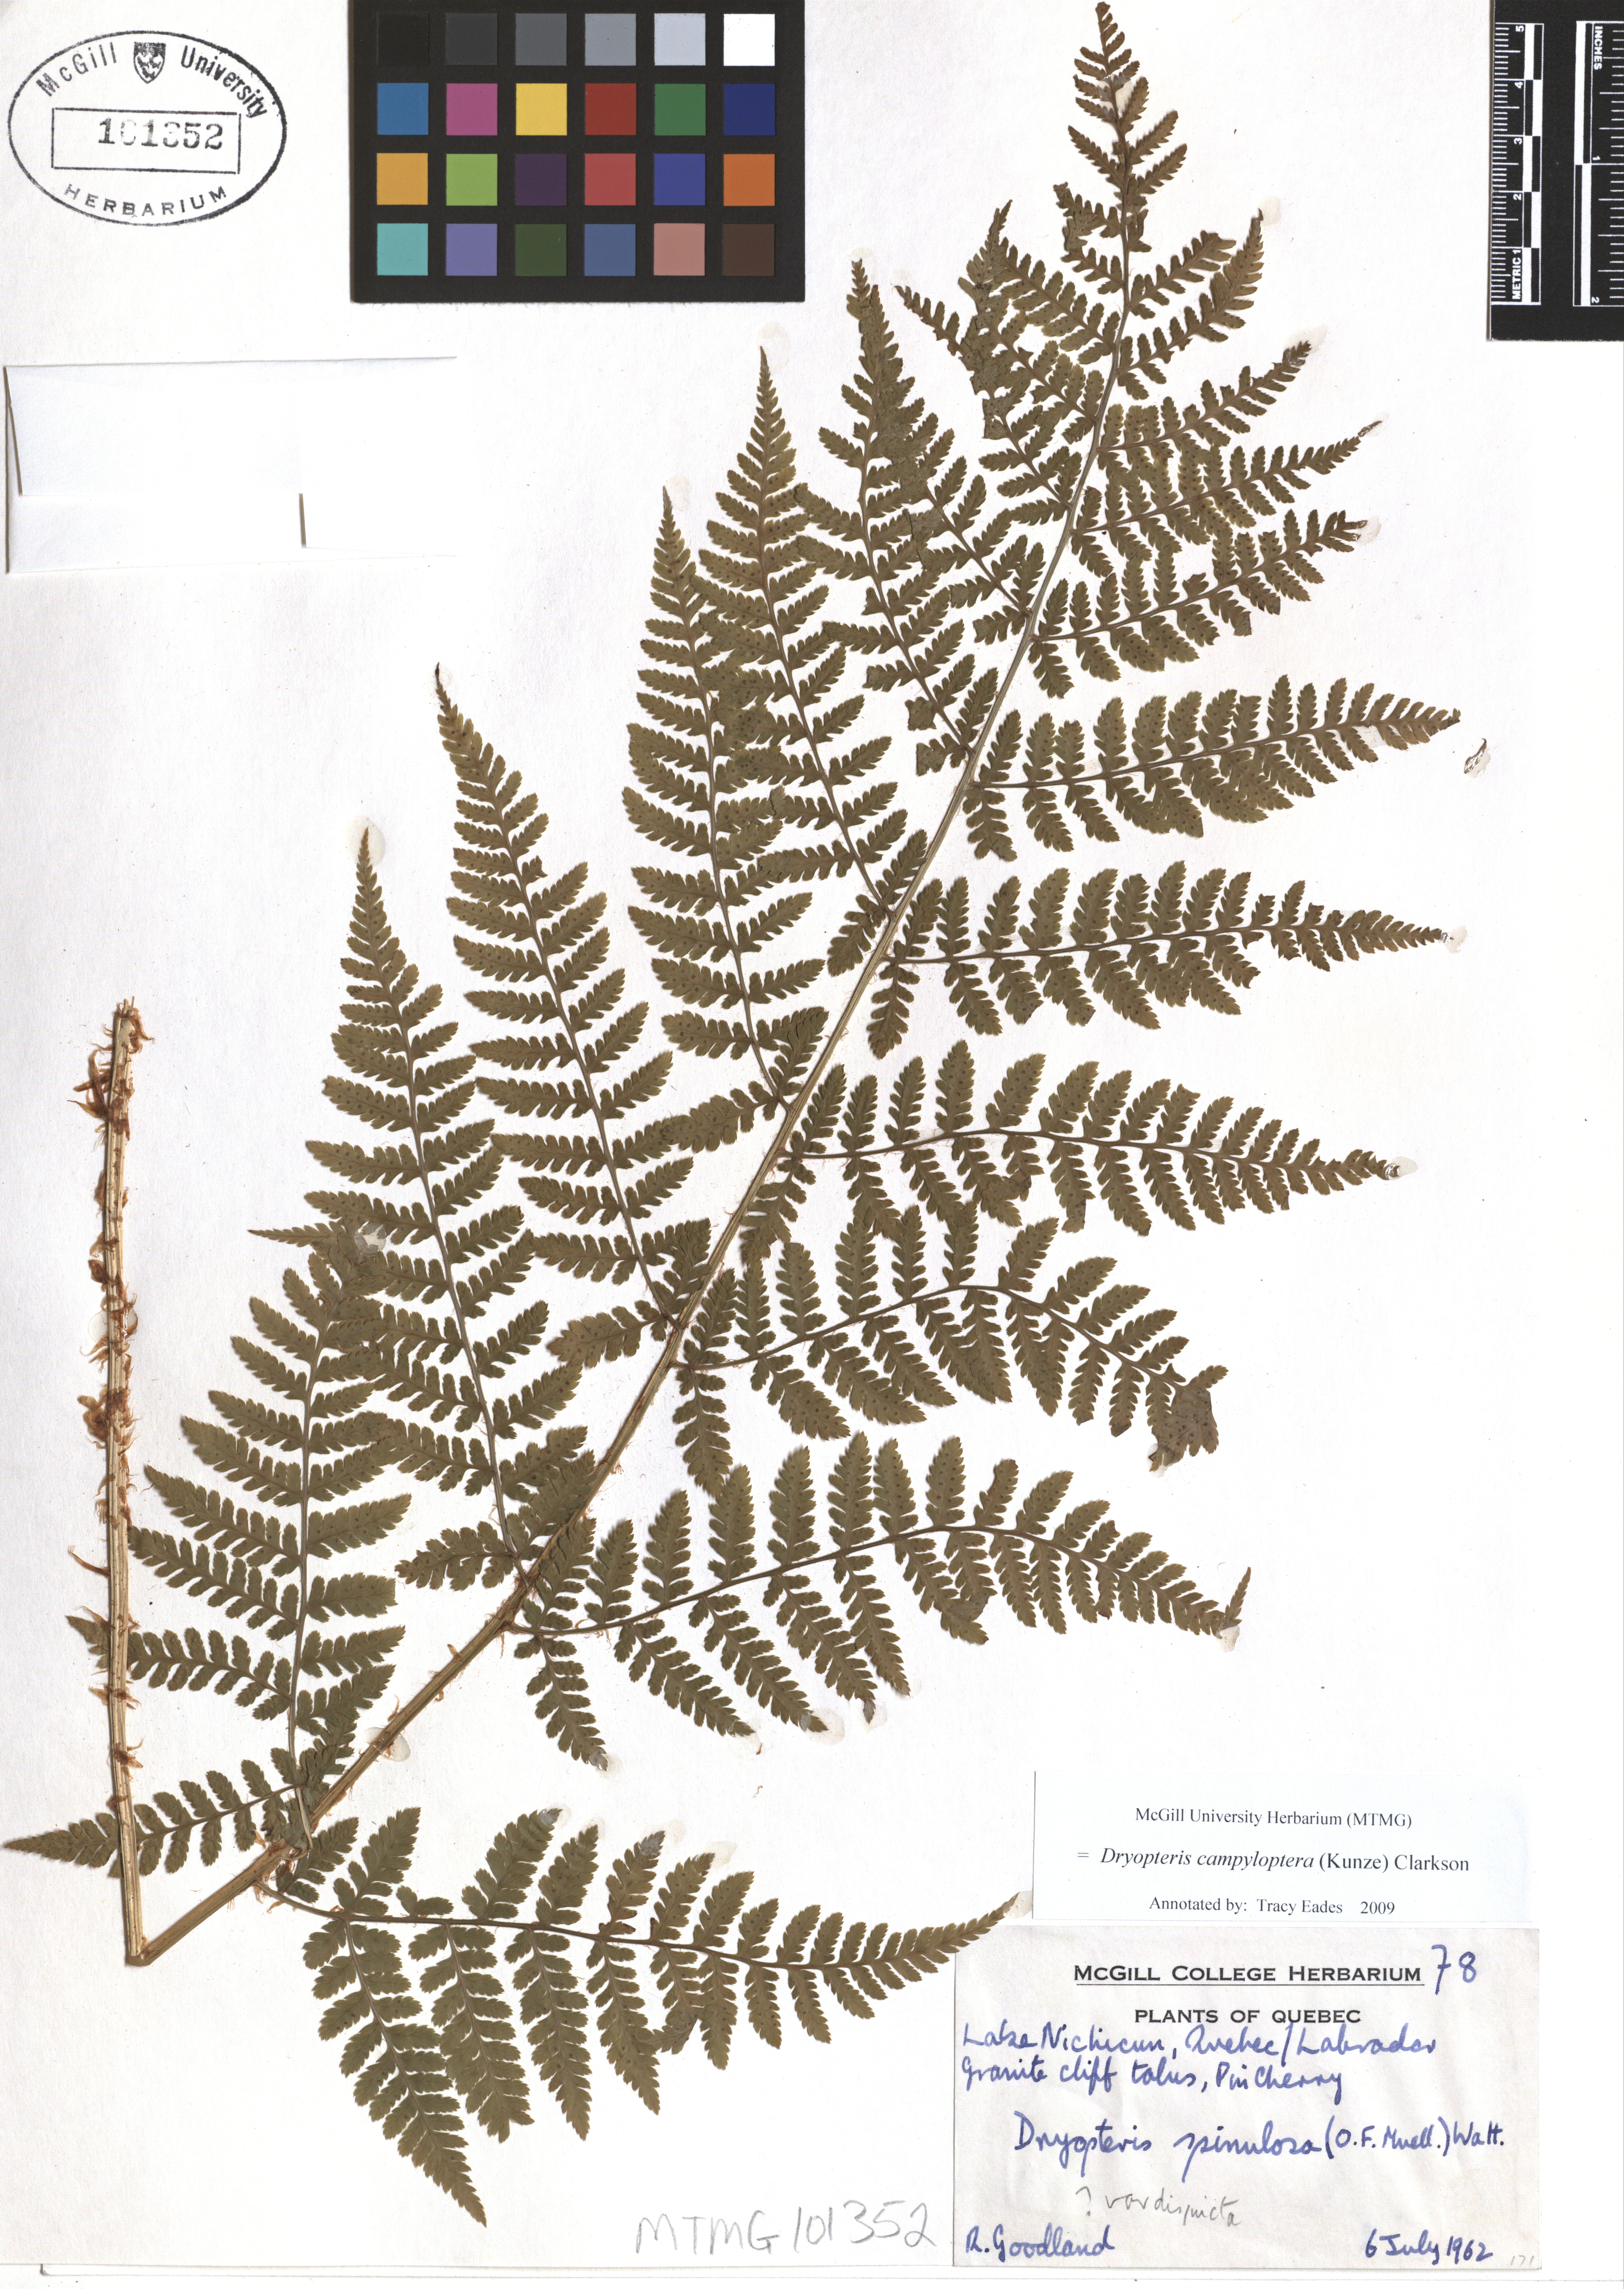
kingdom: Plantae
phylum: Tracheophyta
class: Polypodiopsida
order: Polypodiales
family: Dryopteridaceae
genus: Dryopteris
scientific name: Dryopteris campyloptera
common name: Mountain wood fern
